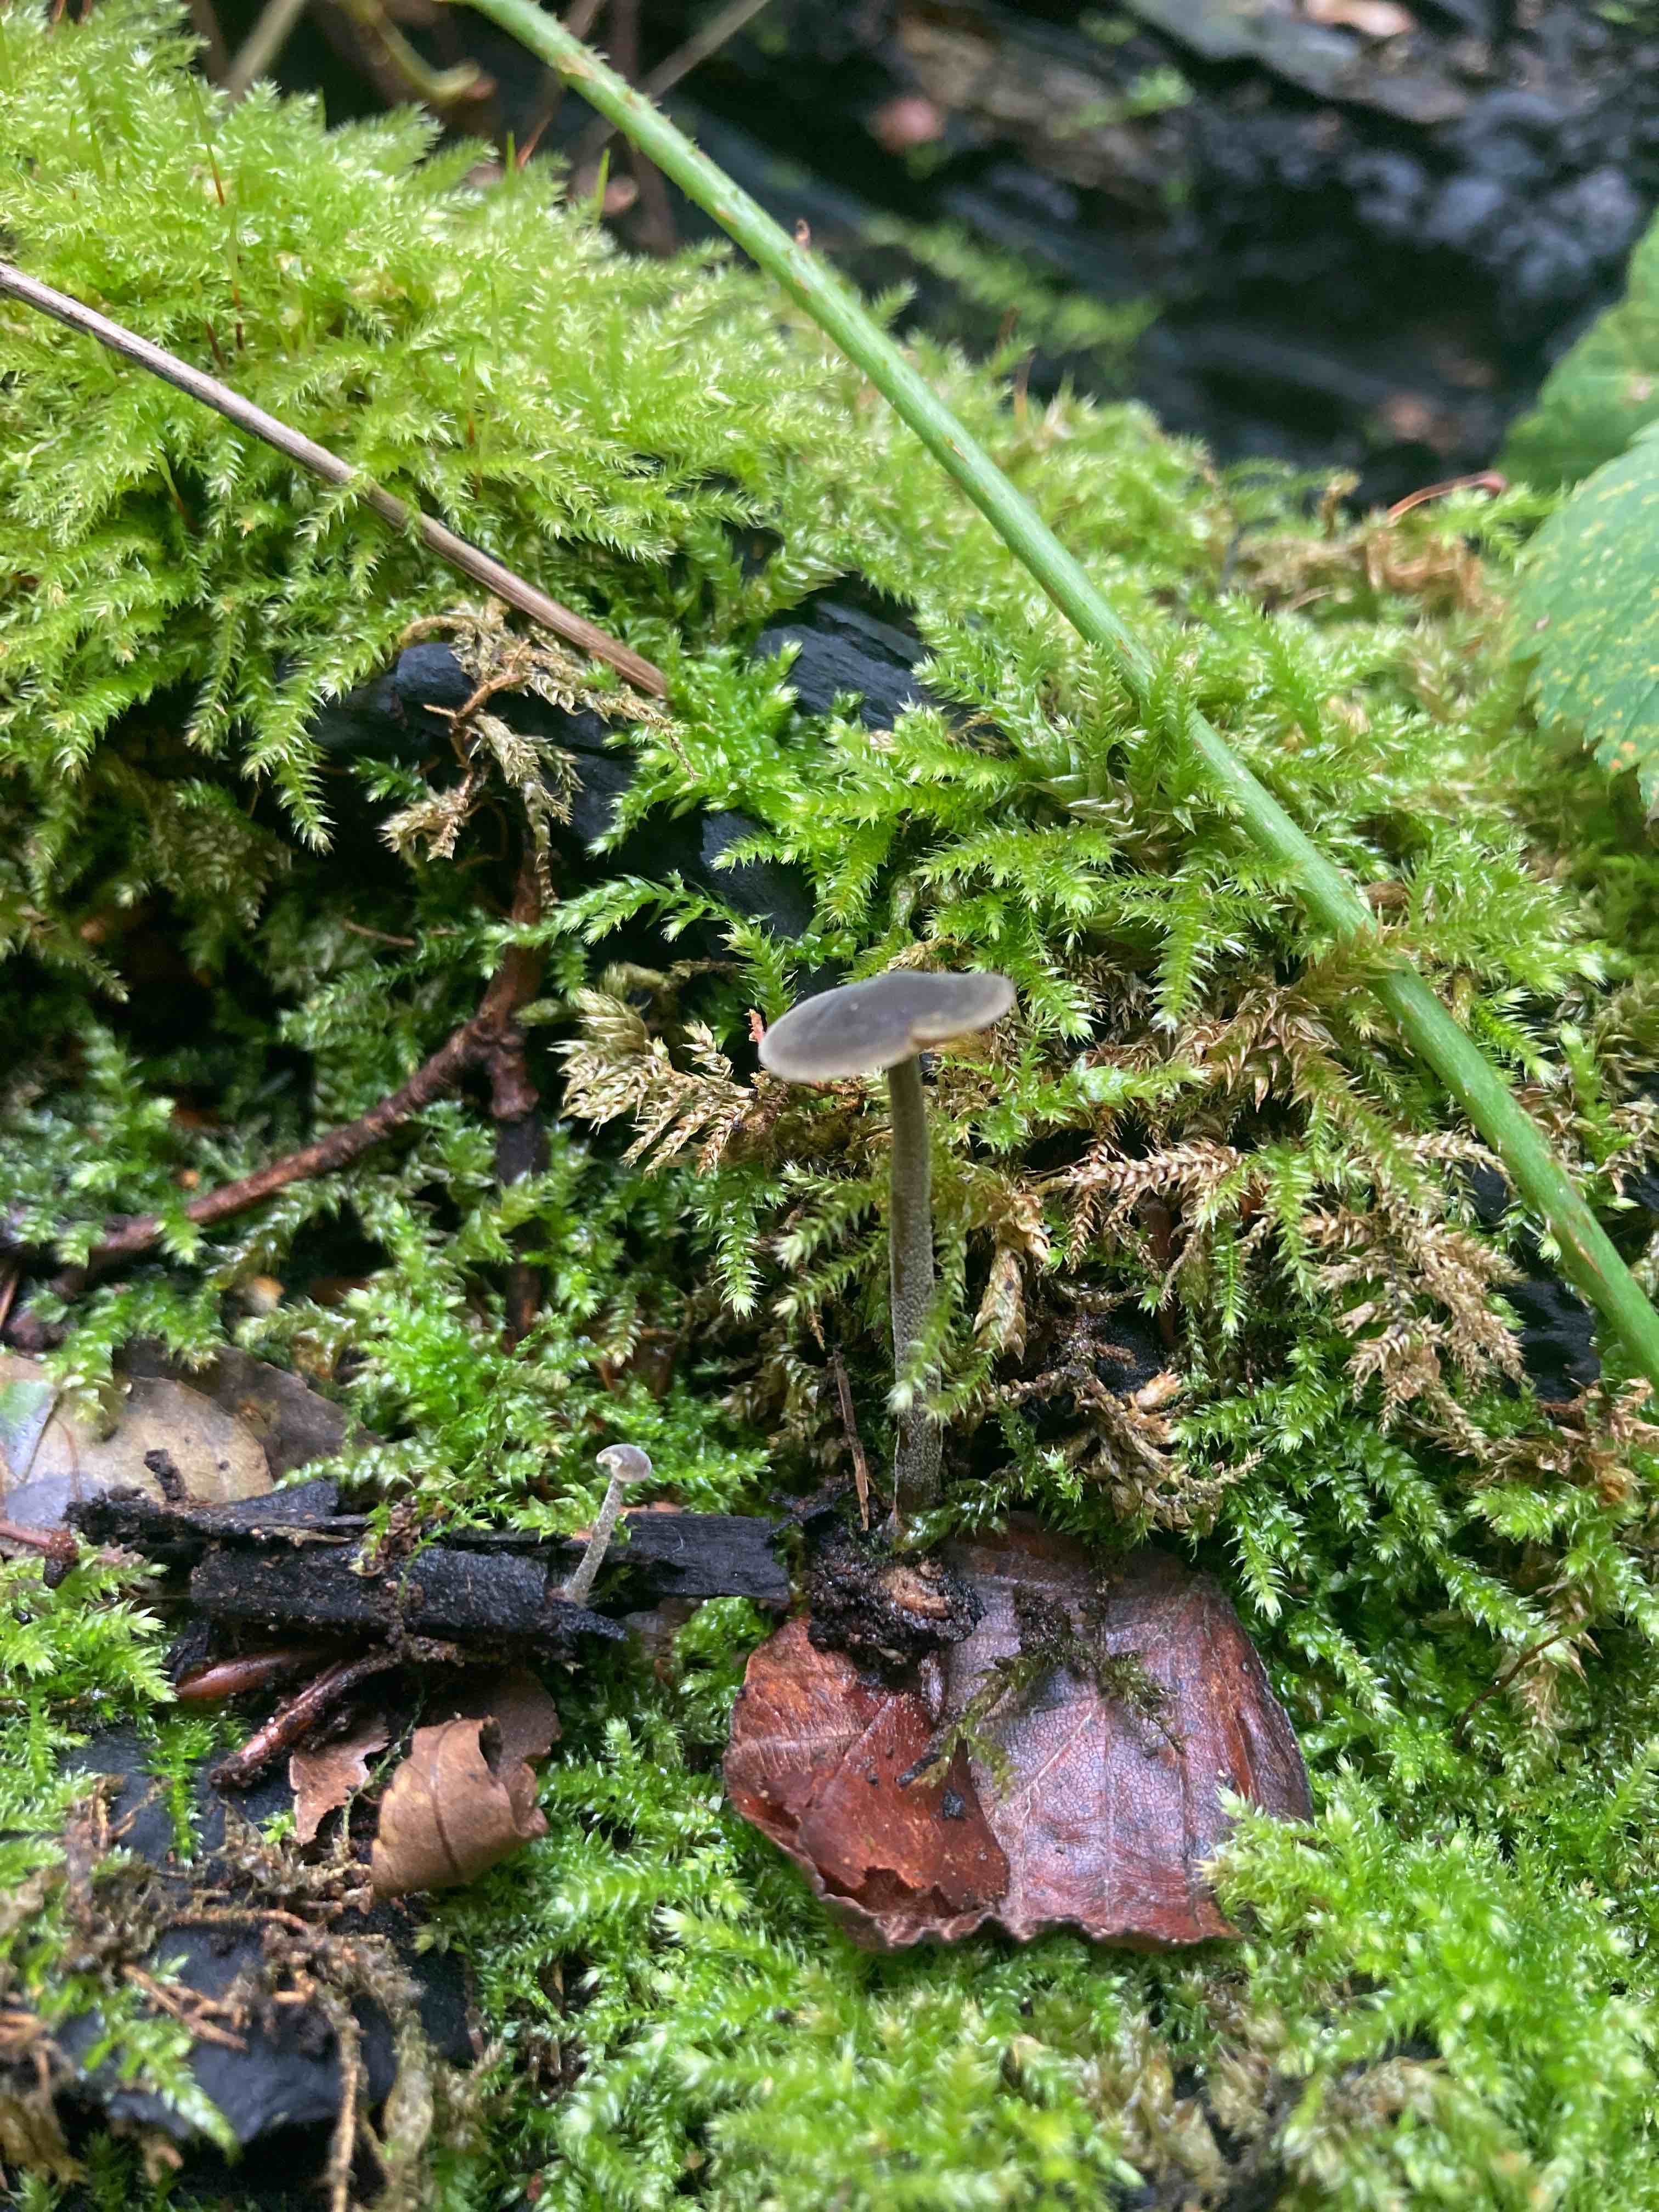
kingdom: Fungi
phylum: Basidiomycota
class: Agaricomycetes
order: Agaricales
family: Crepidotaceae
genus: Simocybe
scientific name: Simocybe centunculus
